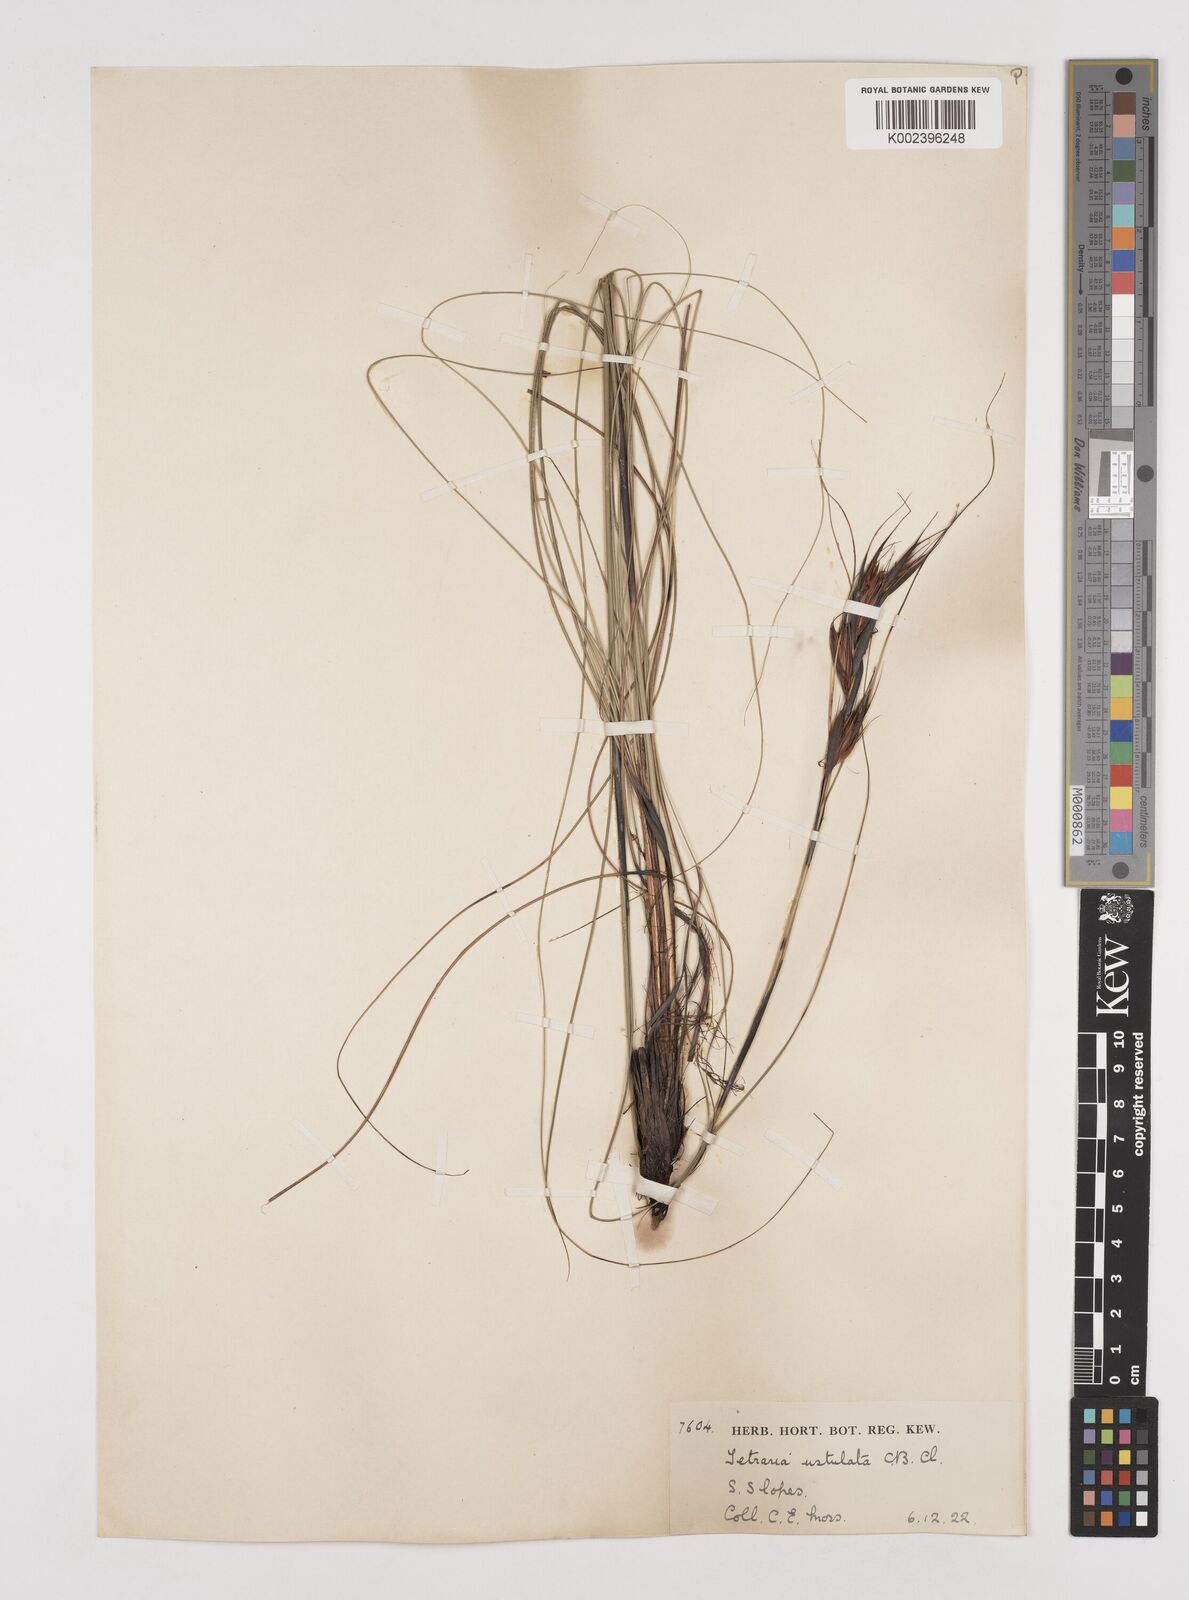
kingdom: Plantae
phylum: Tracheophyta
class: Liliopsida
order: Poales
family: Cyperaceae
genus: Tetraria
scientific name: Tetraria ustulata
